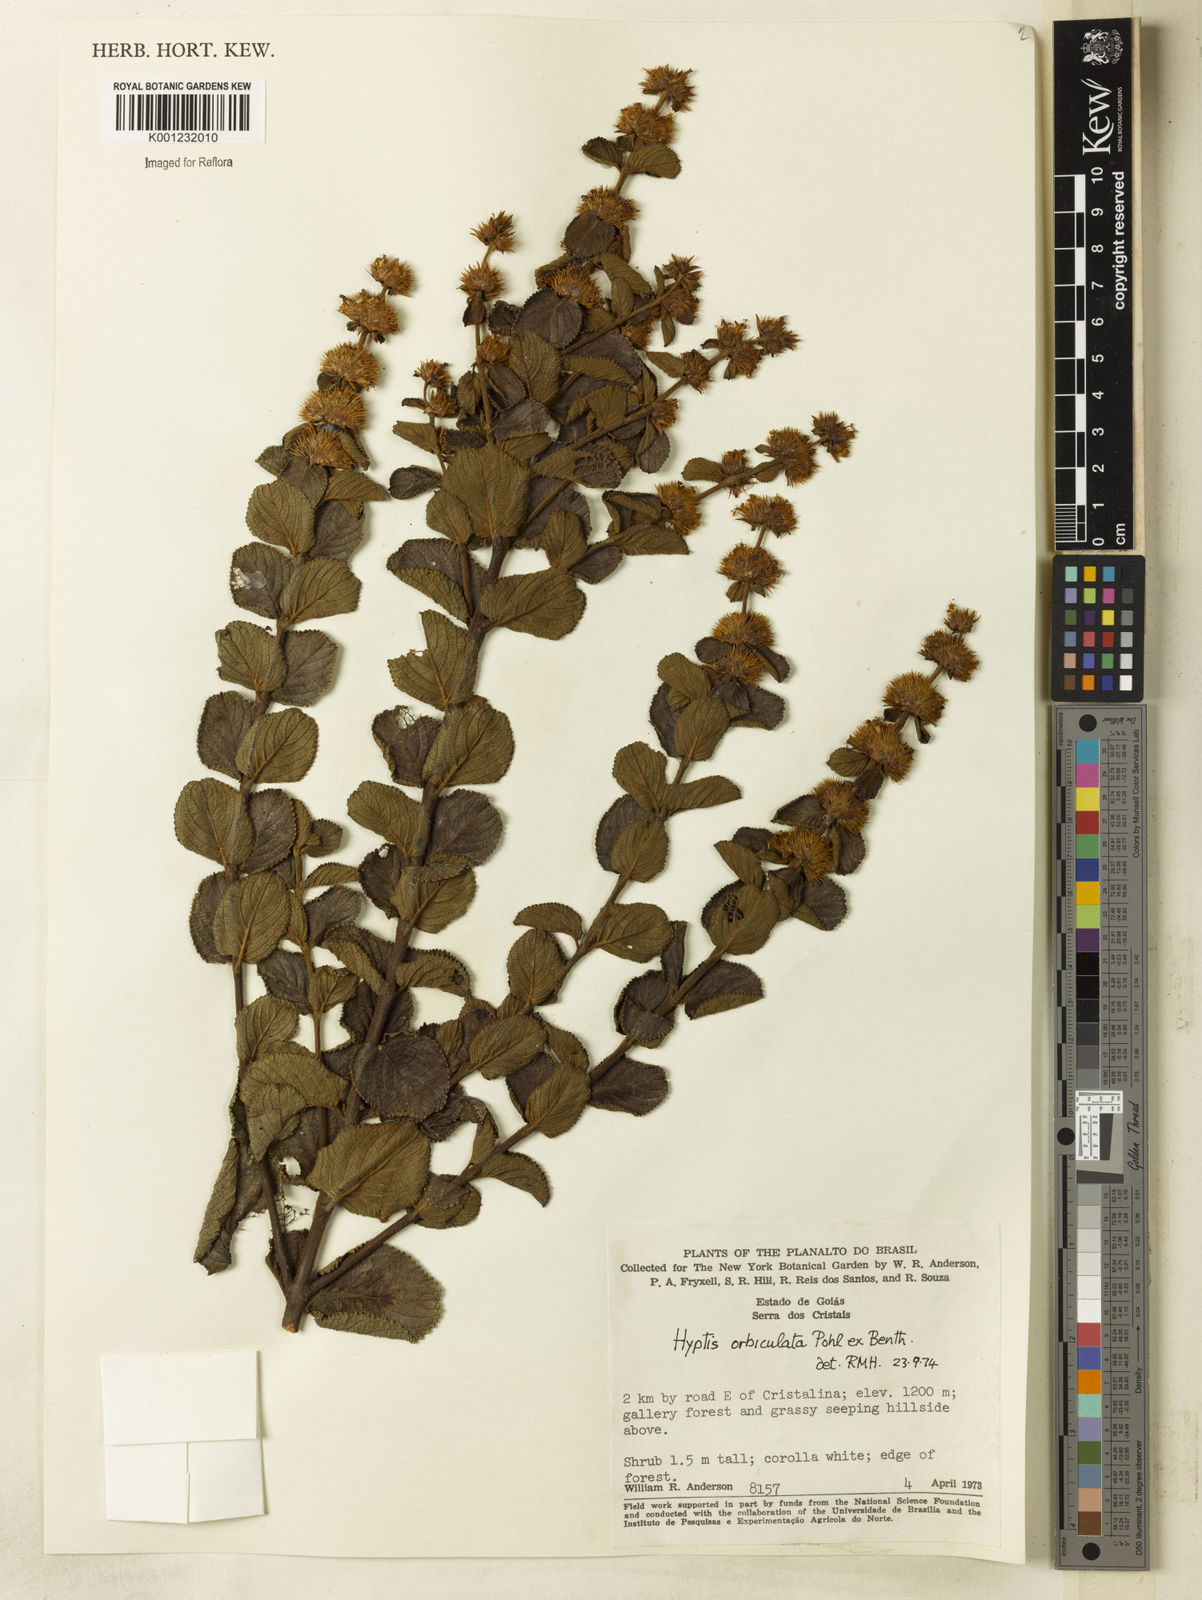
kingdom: Plantae
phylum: Tracheophyta
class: Magnoliopsida
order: Lamiales
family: Lamiaceae
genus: Hyptis
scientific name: Hyptis orbiculata
